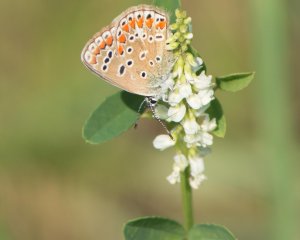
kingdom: Animalia
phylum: Arthropoda
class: Insecta
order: Lepidoptera
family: Lycaenidae
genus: Polyommatus
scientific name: Polyommatus icarus
